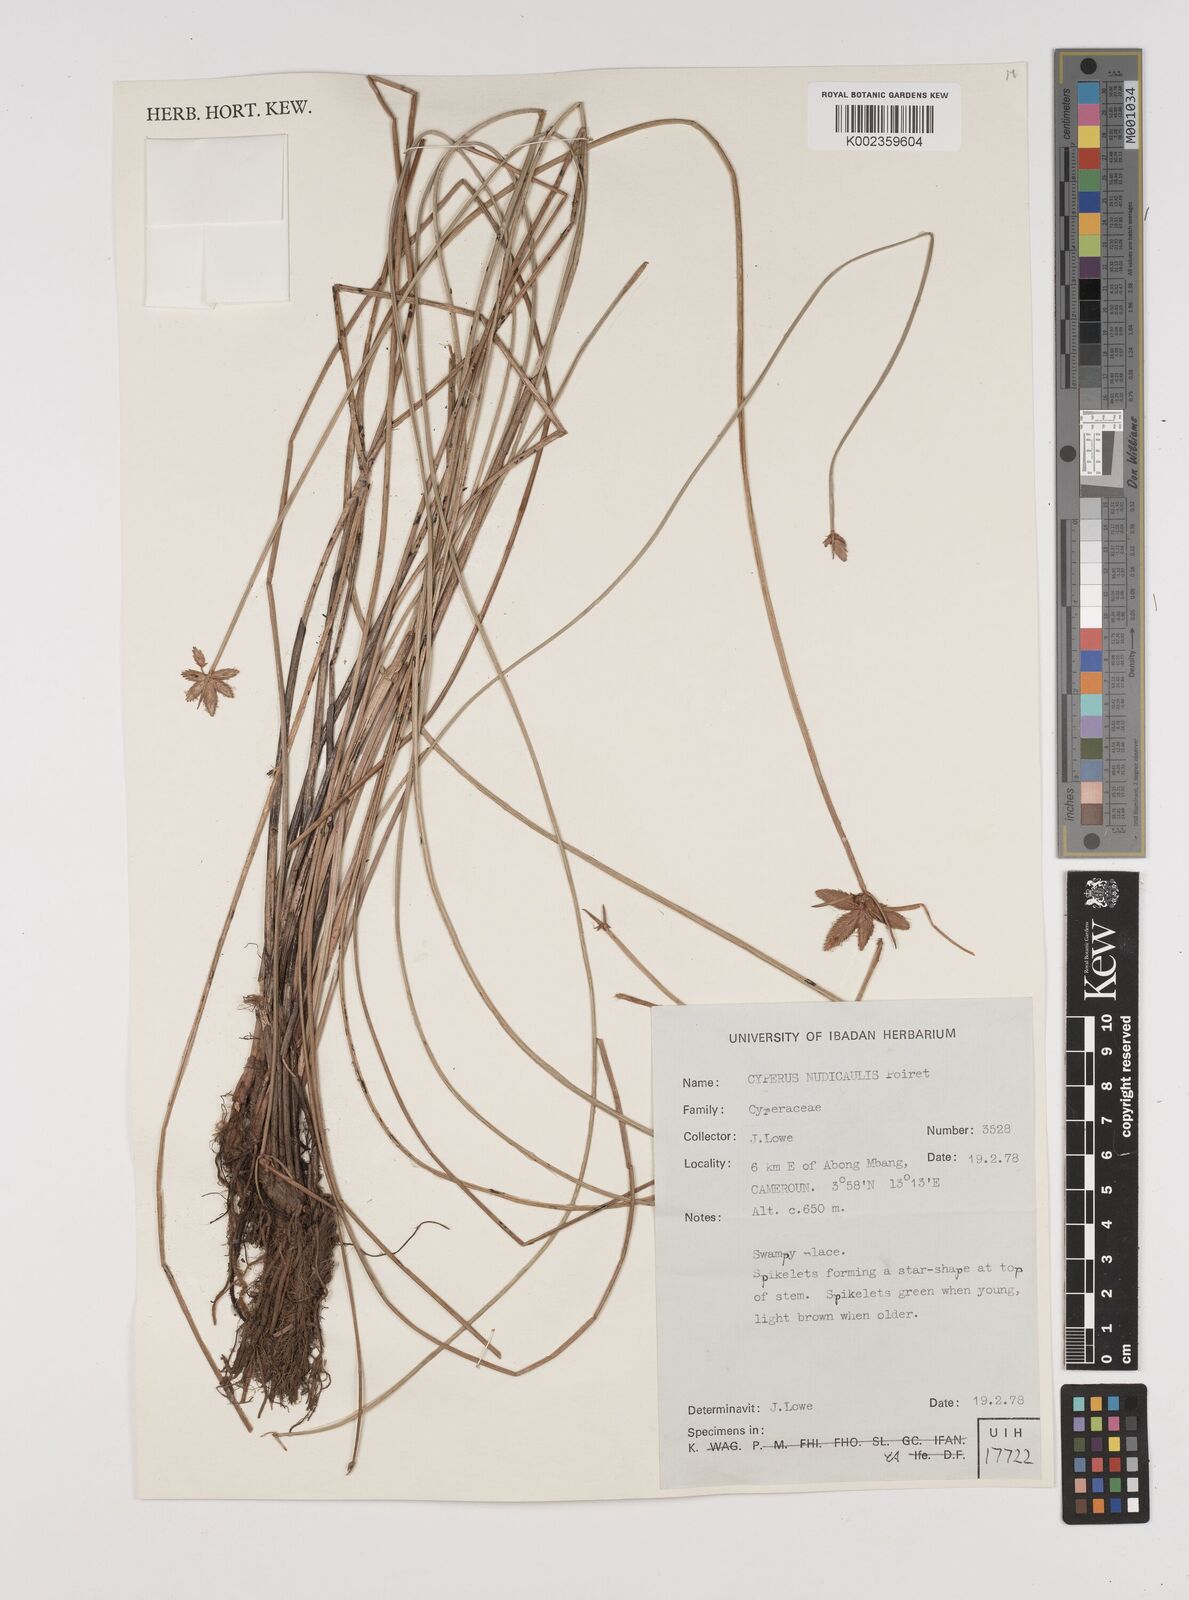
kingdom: Plantae
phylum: Tracheophyta
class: Liliopsida
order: Poales
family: Cyperaceae
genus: Cyperus
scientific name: Cyperus pectinatus
